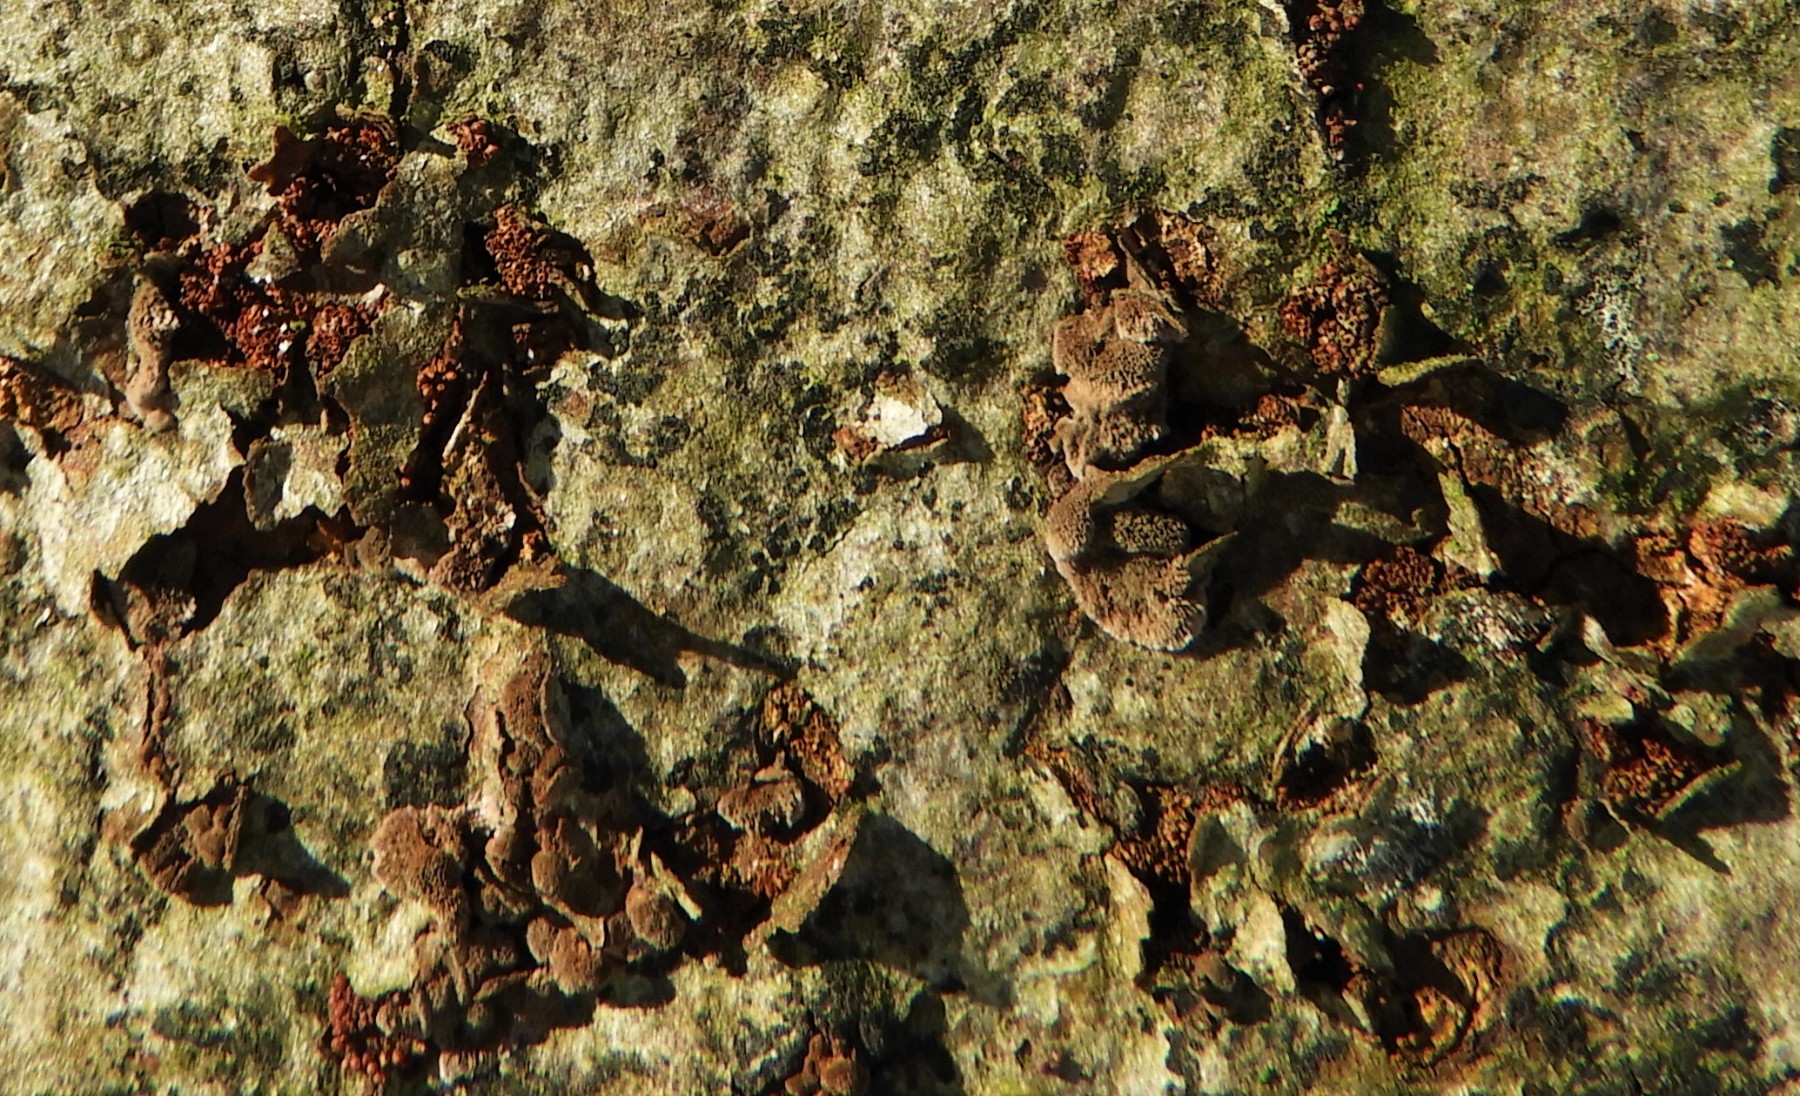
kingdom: Fungi
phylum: Ascomycota
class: Sordariomycetes
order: Hypocreales
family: Nectriaceae
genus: Neonectria
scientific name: Neonectria coccinea
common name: bøgebark-cinnobersvamp
